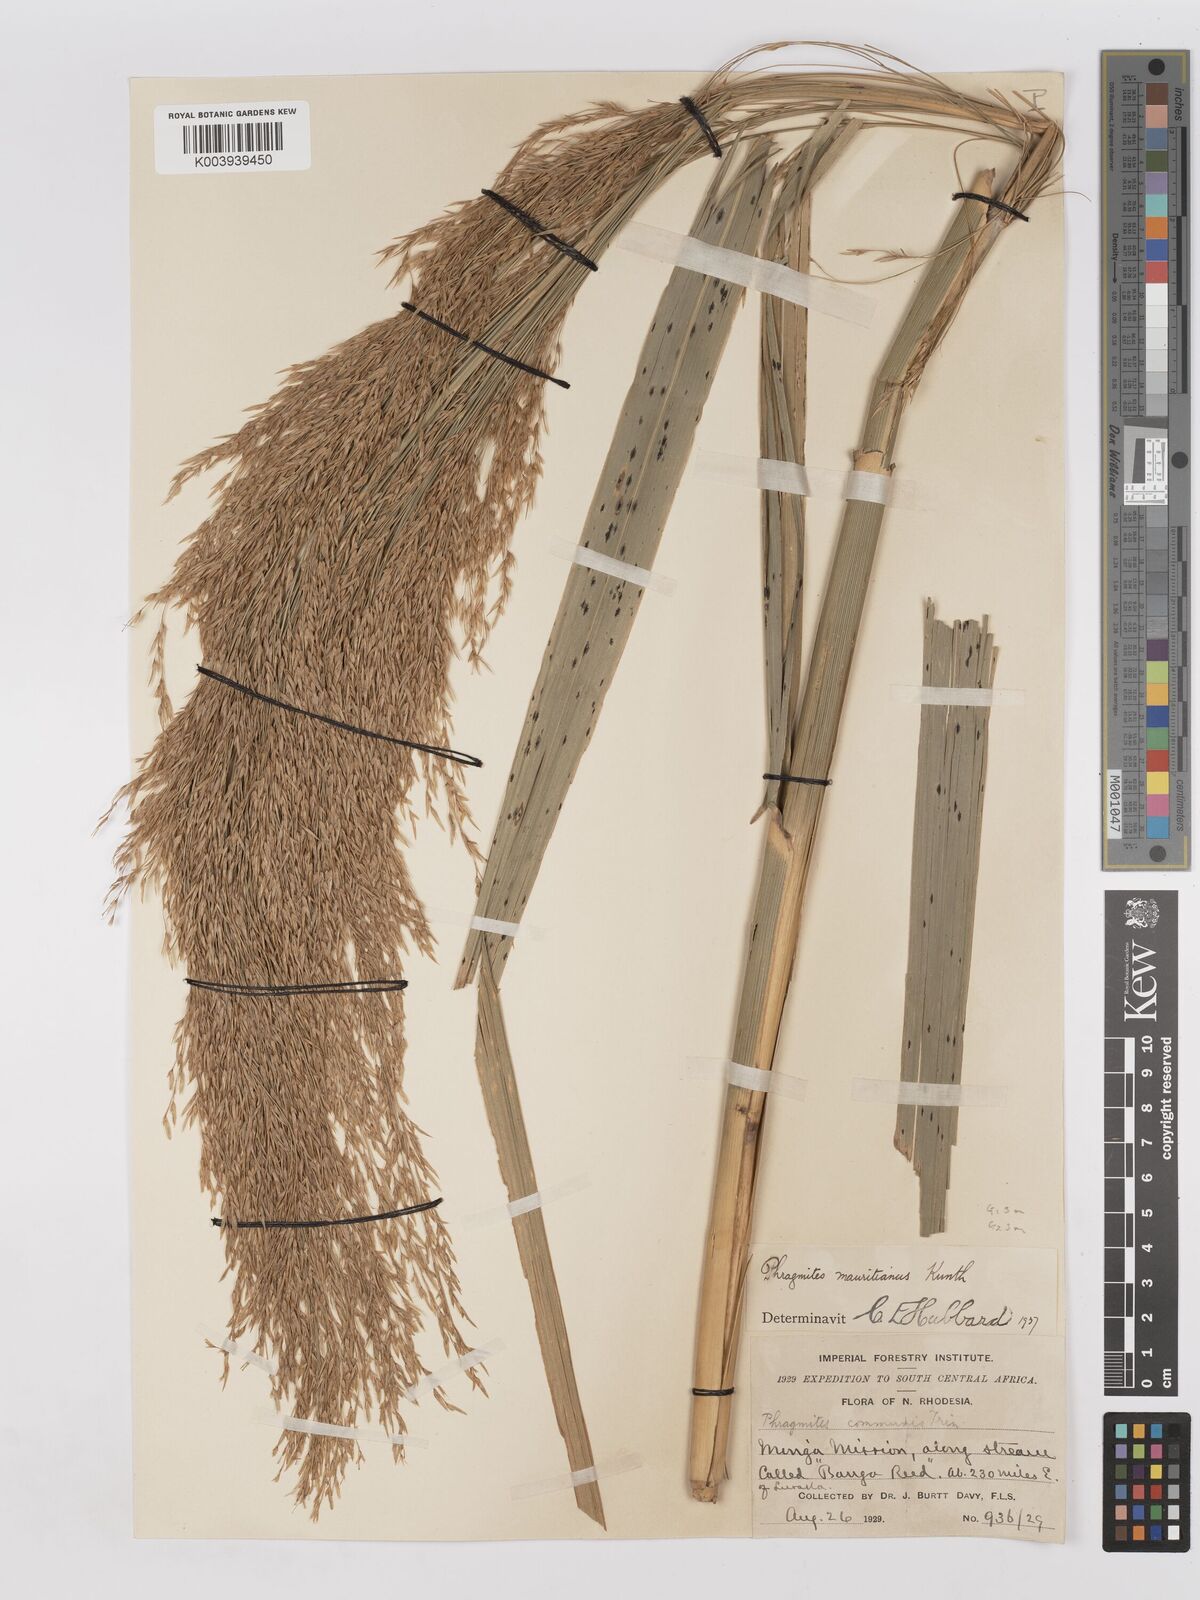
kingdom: Plantae
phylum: Tracheophyta
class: Liliopsida
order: Poales
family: Poaceae
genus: Phragmites
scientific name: Phragmites mauritianus
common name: Reed grass
